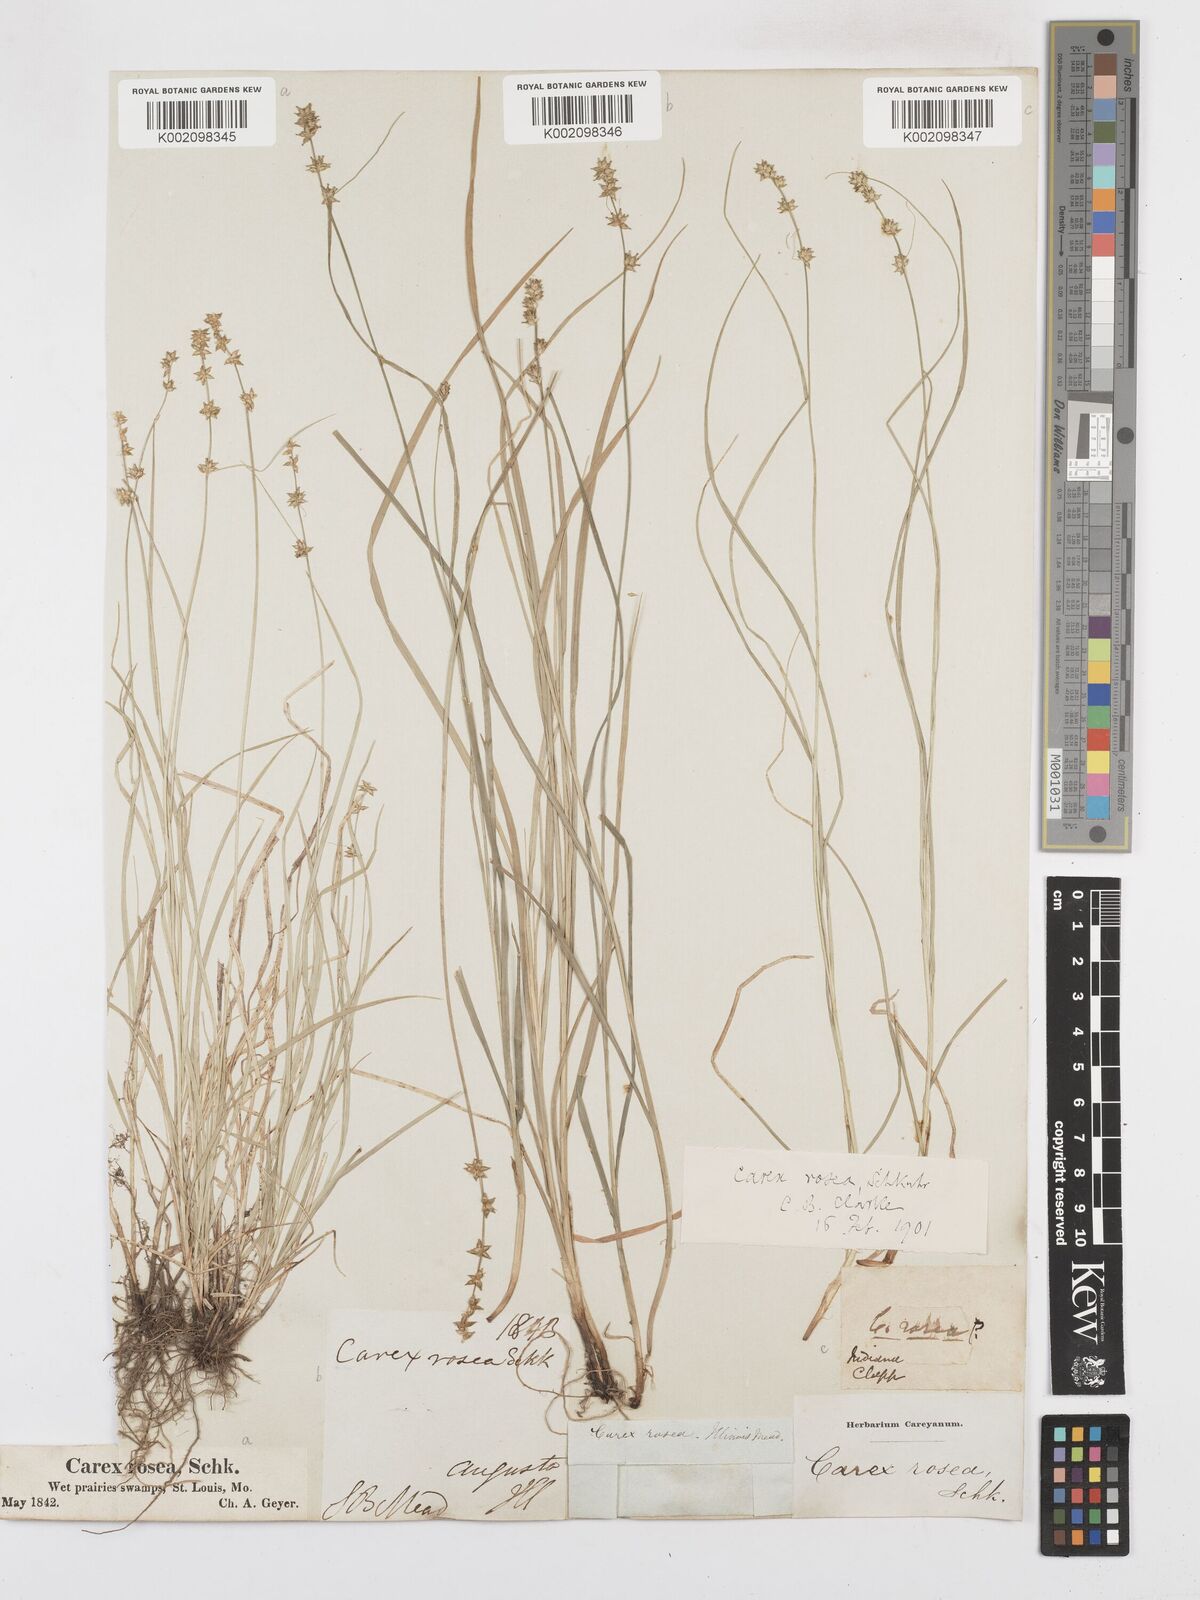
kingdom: Plantae
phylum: Tracheophyta
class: Liliopsida
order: Poales
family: Cyperaceae
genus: Carex
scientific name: Carex rosea
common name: Curly-styled wood sedge
